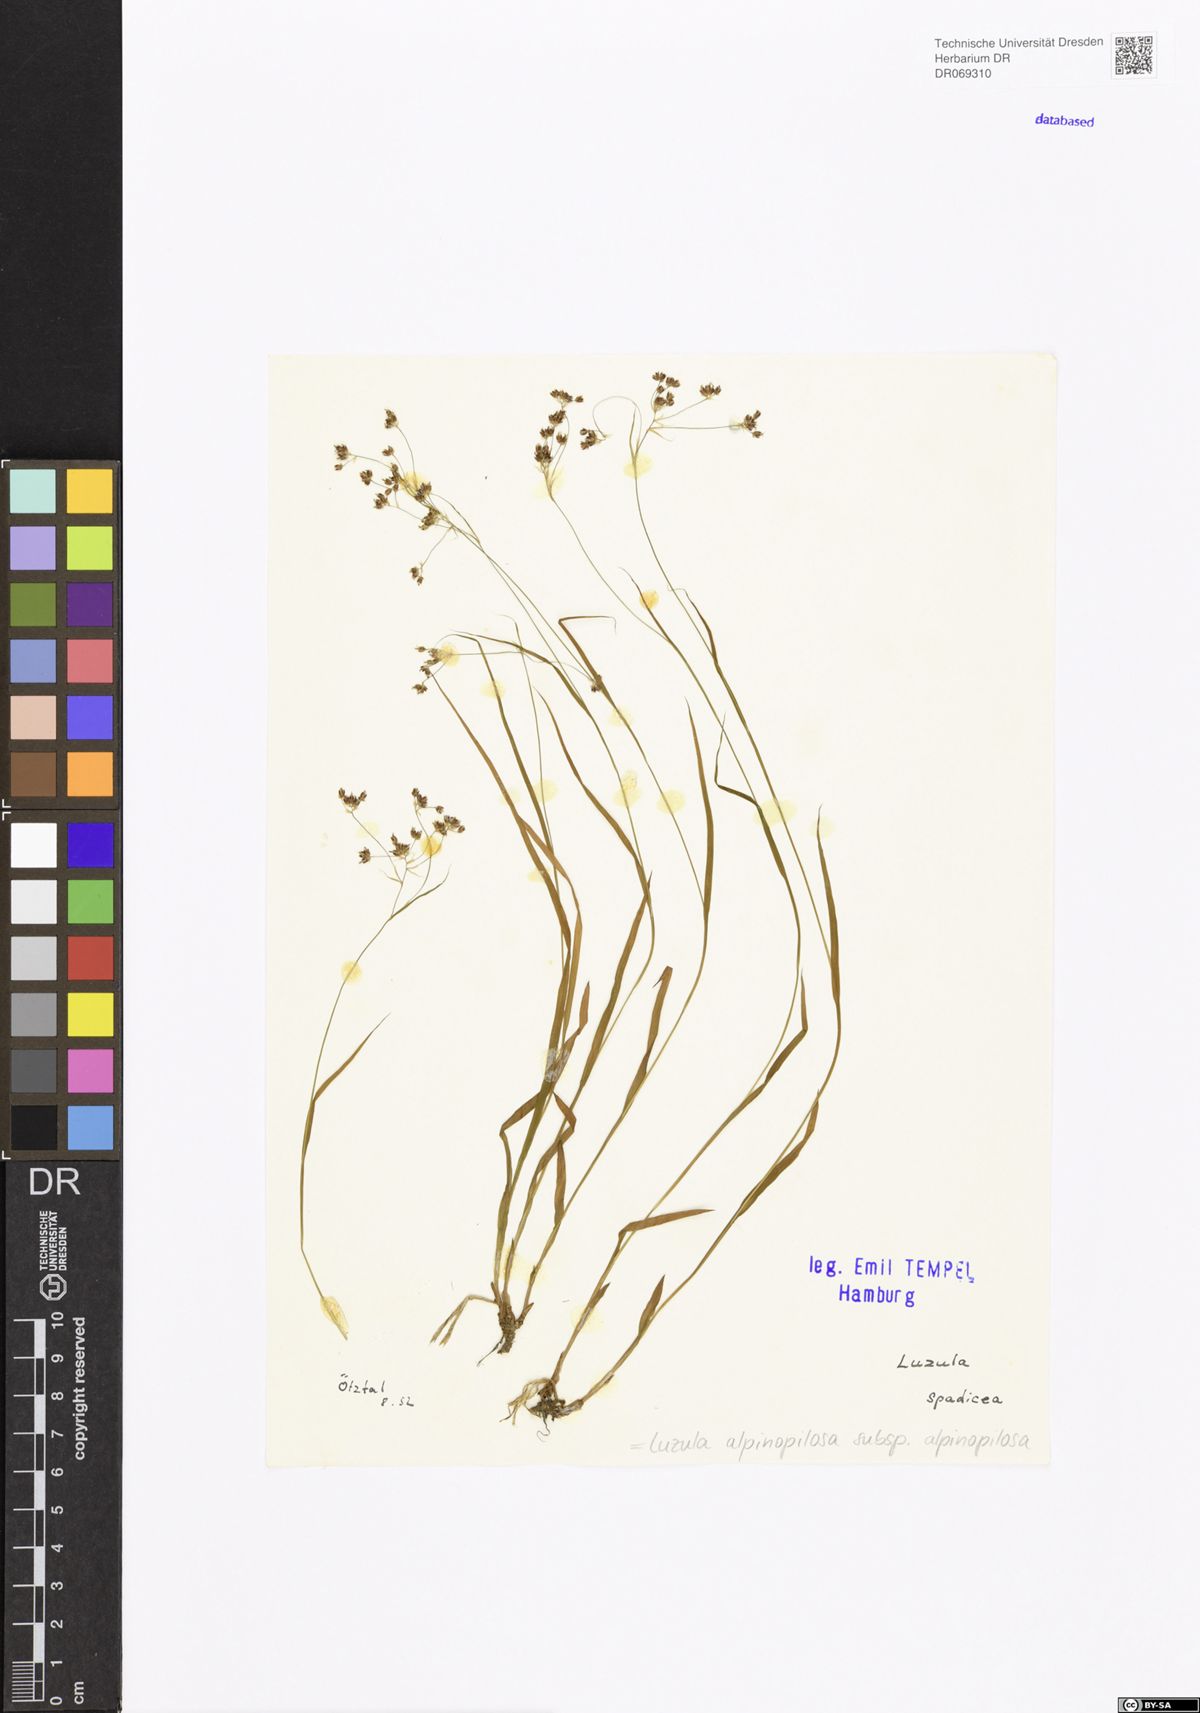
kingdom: Plantae
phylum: Tracheophyta
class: Liliopsida
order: Poales
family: Juncaceae
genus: Luzula
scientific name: Luzula alpinopilosa
